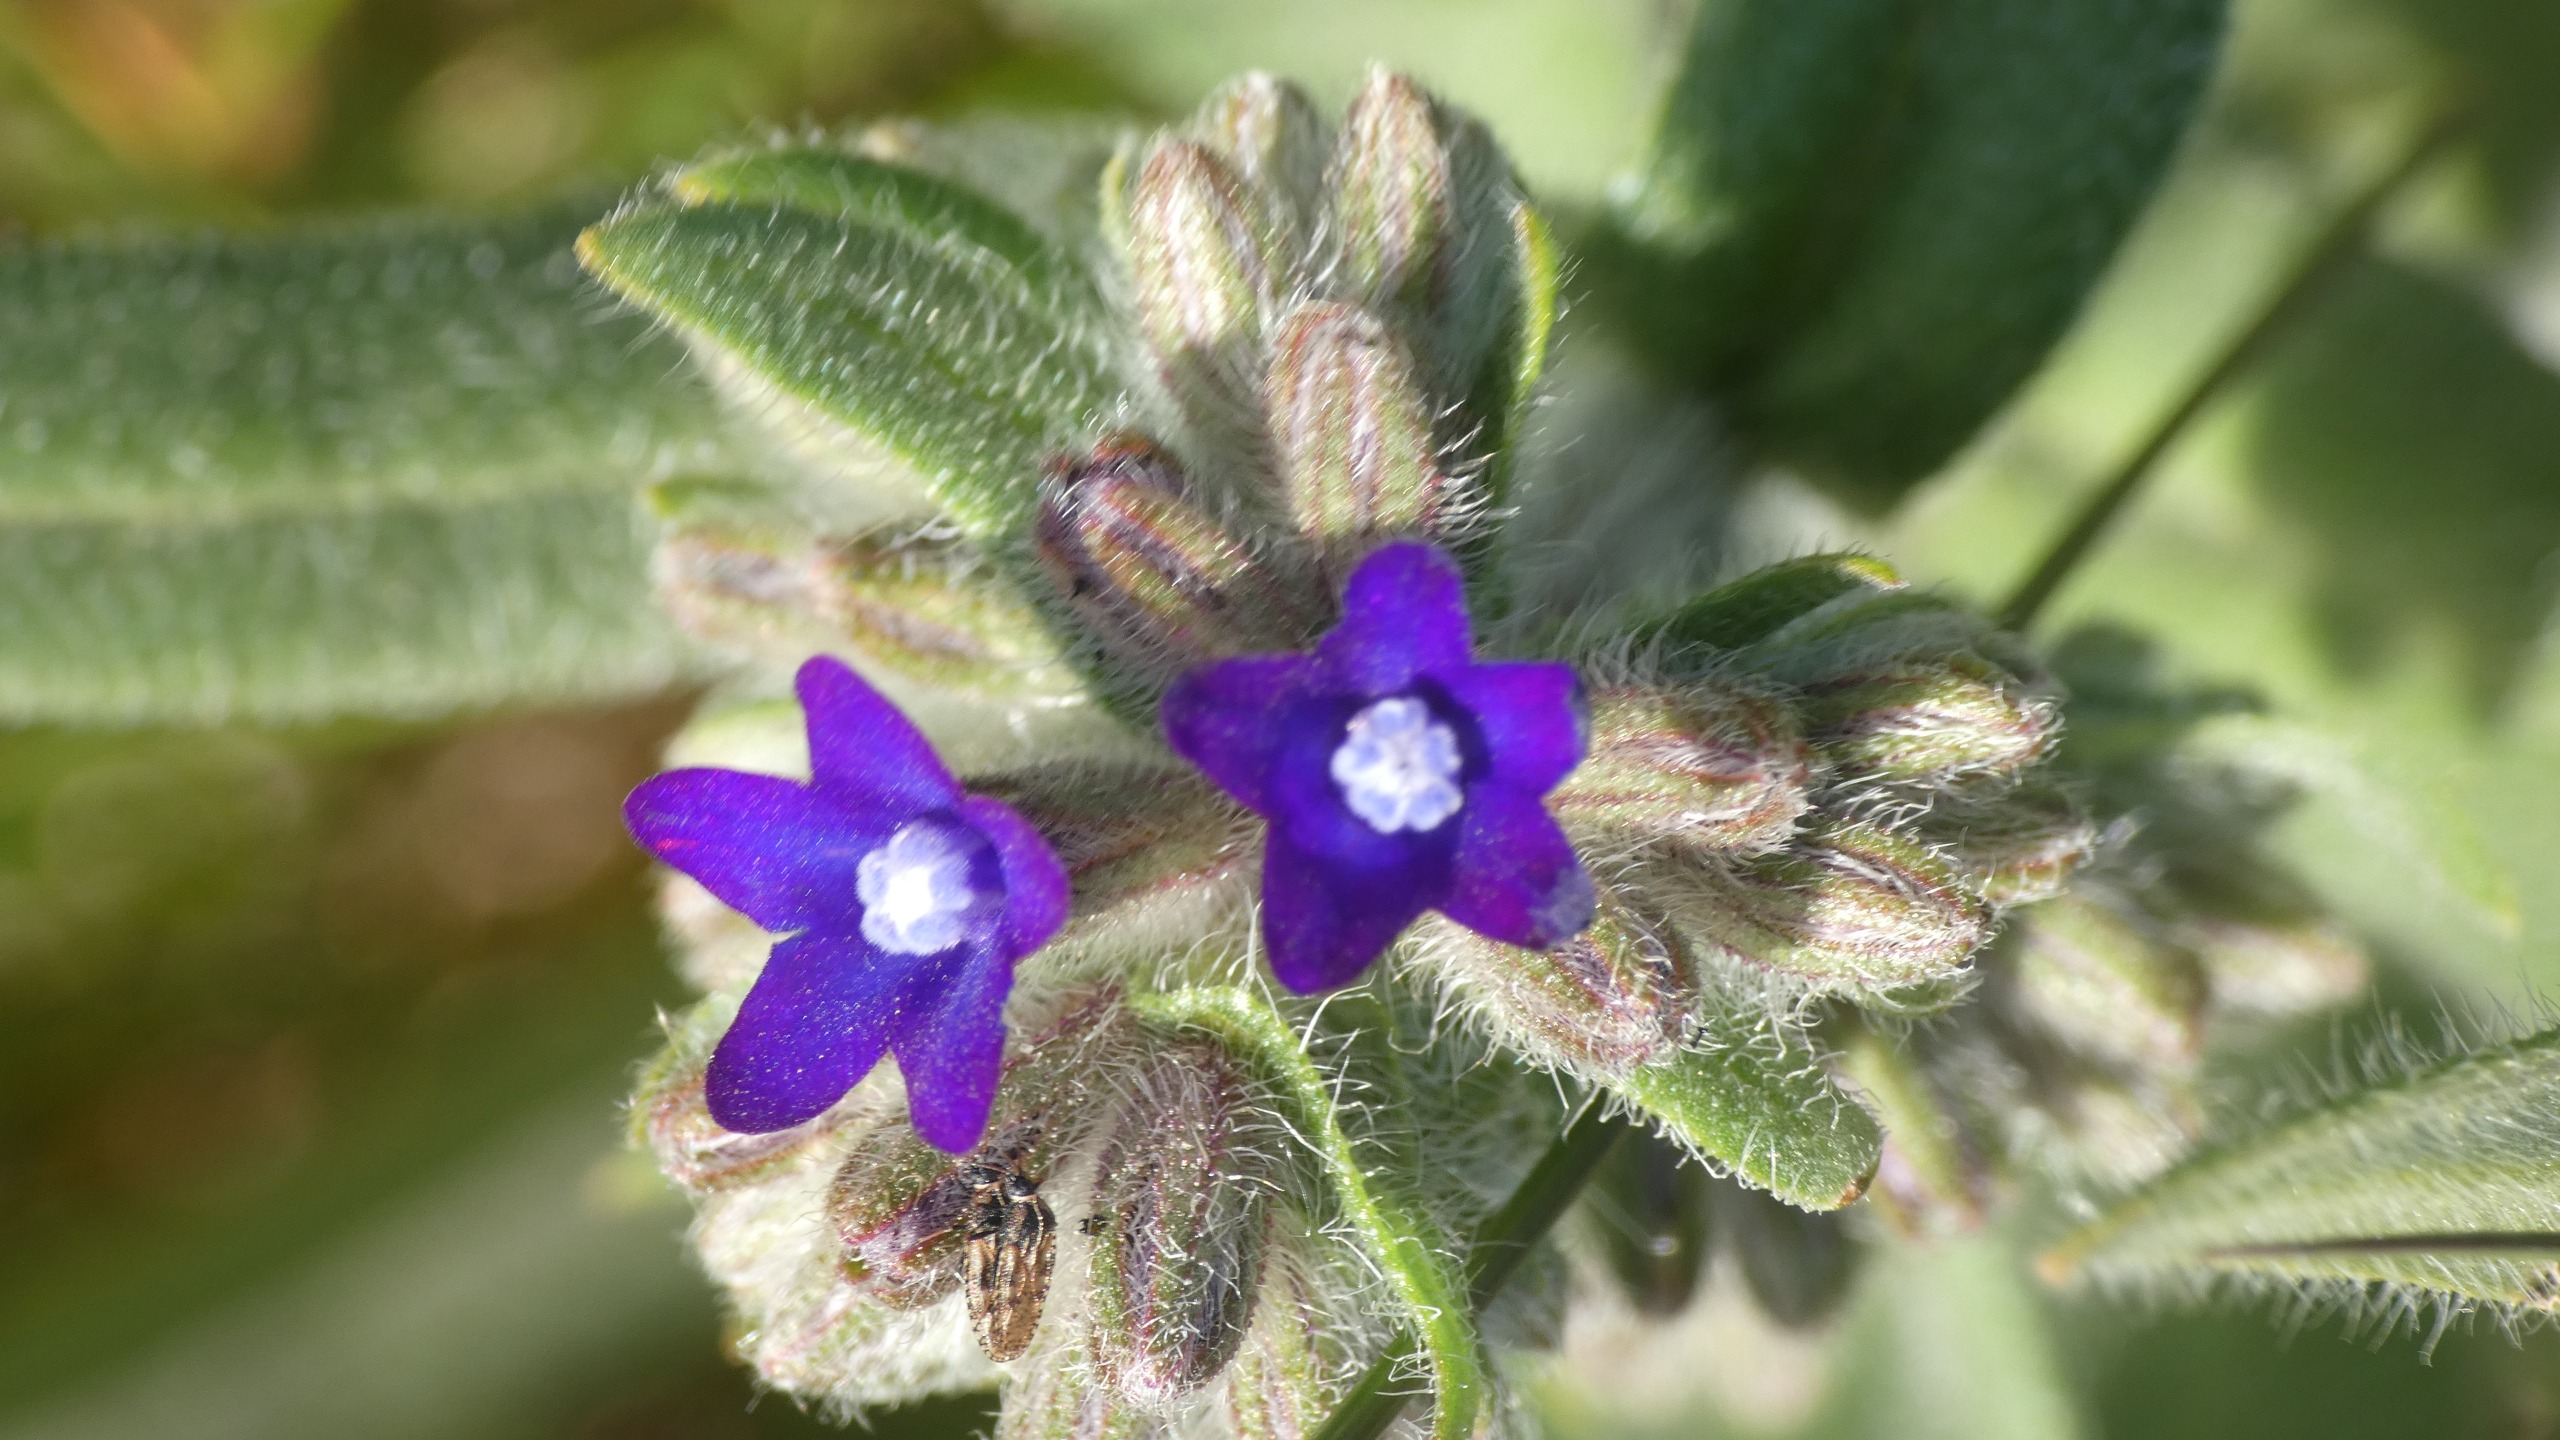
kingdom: Plantae
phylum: Tracheophyta
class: Magnoliopsida
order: Boraginales
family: Boraginaceae
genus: Anchusa
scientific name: Anchusa officinalis
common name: Læge-oksetunge
